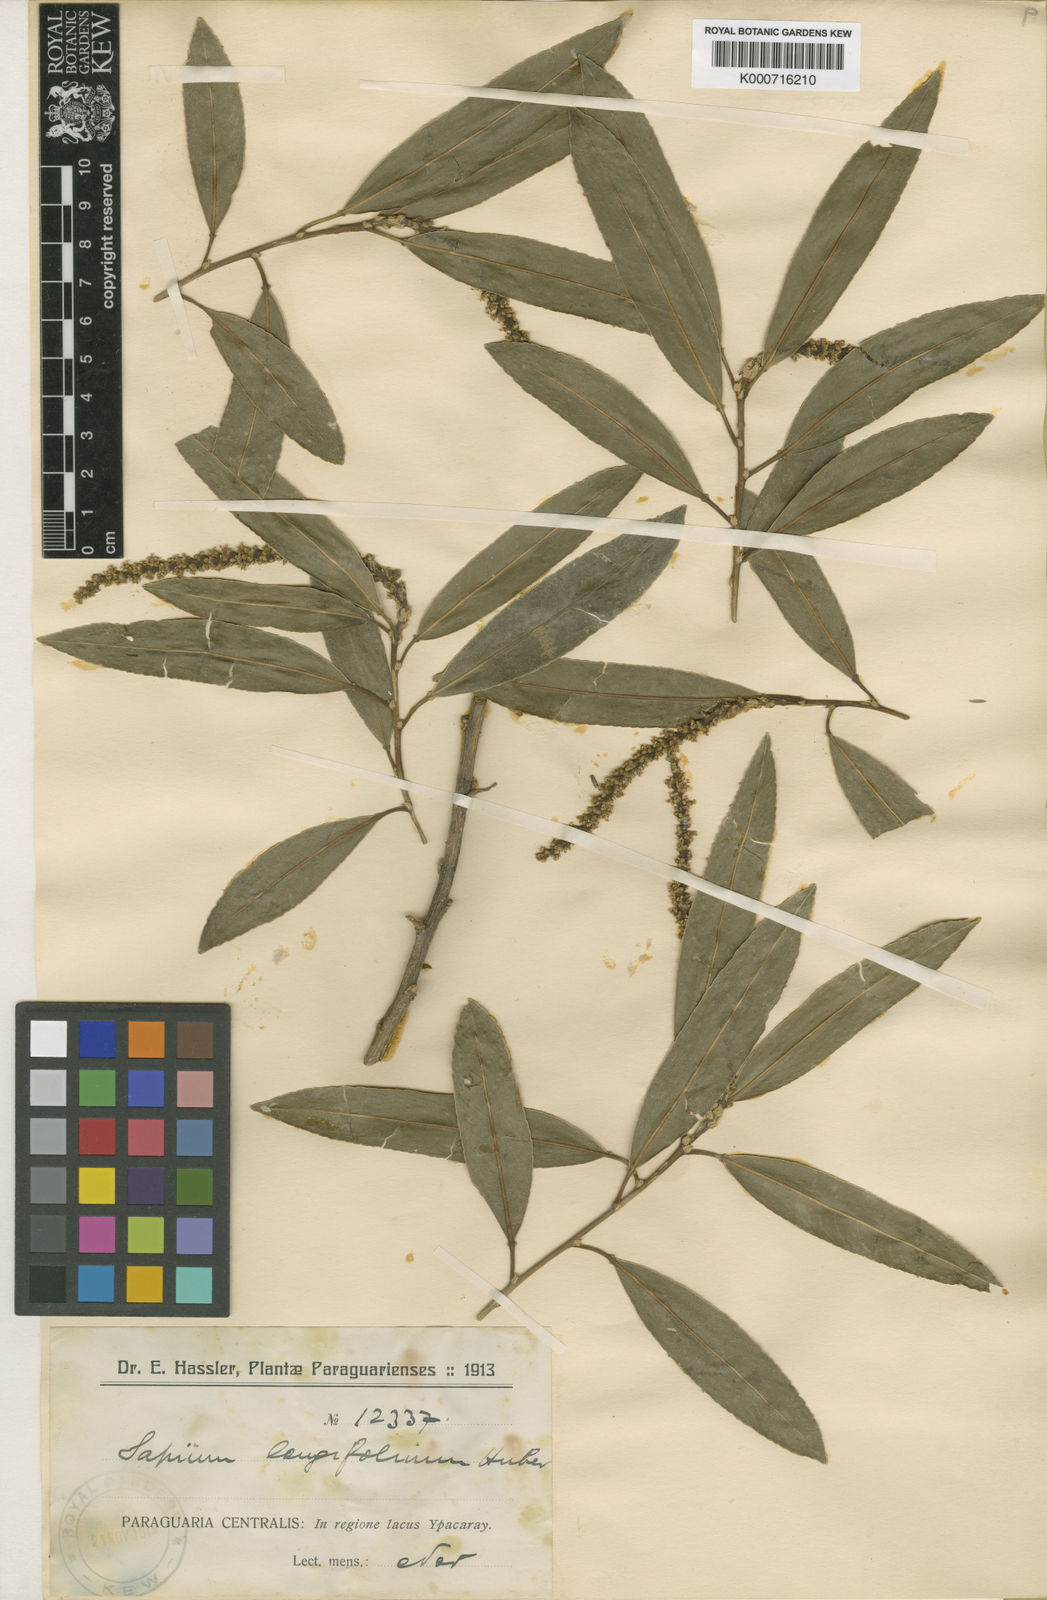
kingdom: Plantae
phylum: Tracheophyta
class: Magnoliopsida
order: Malpighiales
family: Euphorbiaceae
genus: Sapium
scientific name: Sapium
